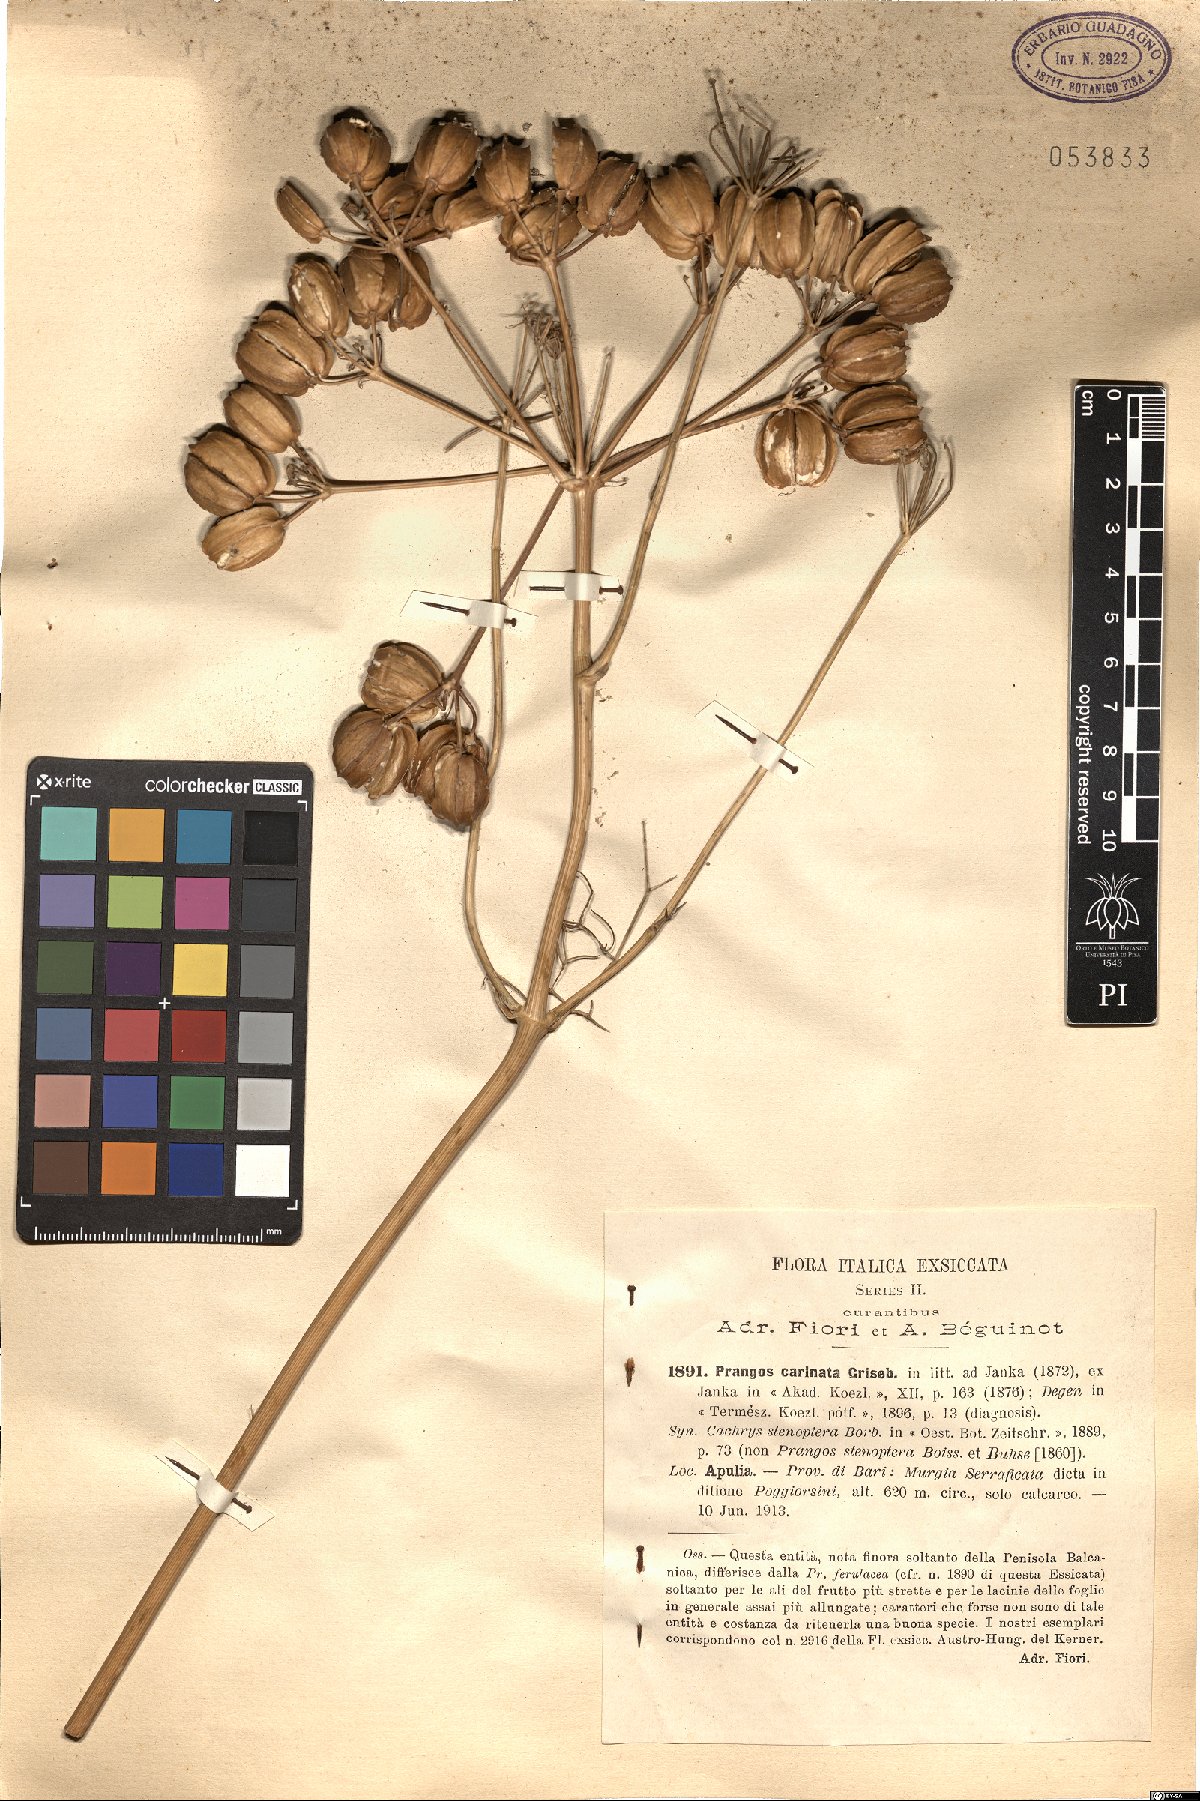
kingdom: Plantae
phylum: Tracheophyta
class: Magnoliopsida
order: Apiales
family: Apiaceae
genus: Prangos
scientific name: Prangos ferulacea
